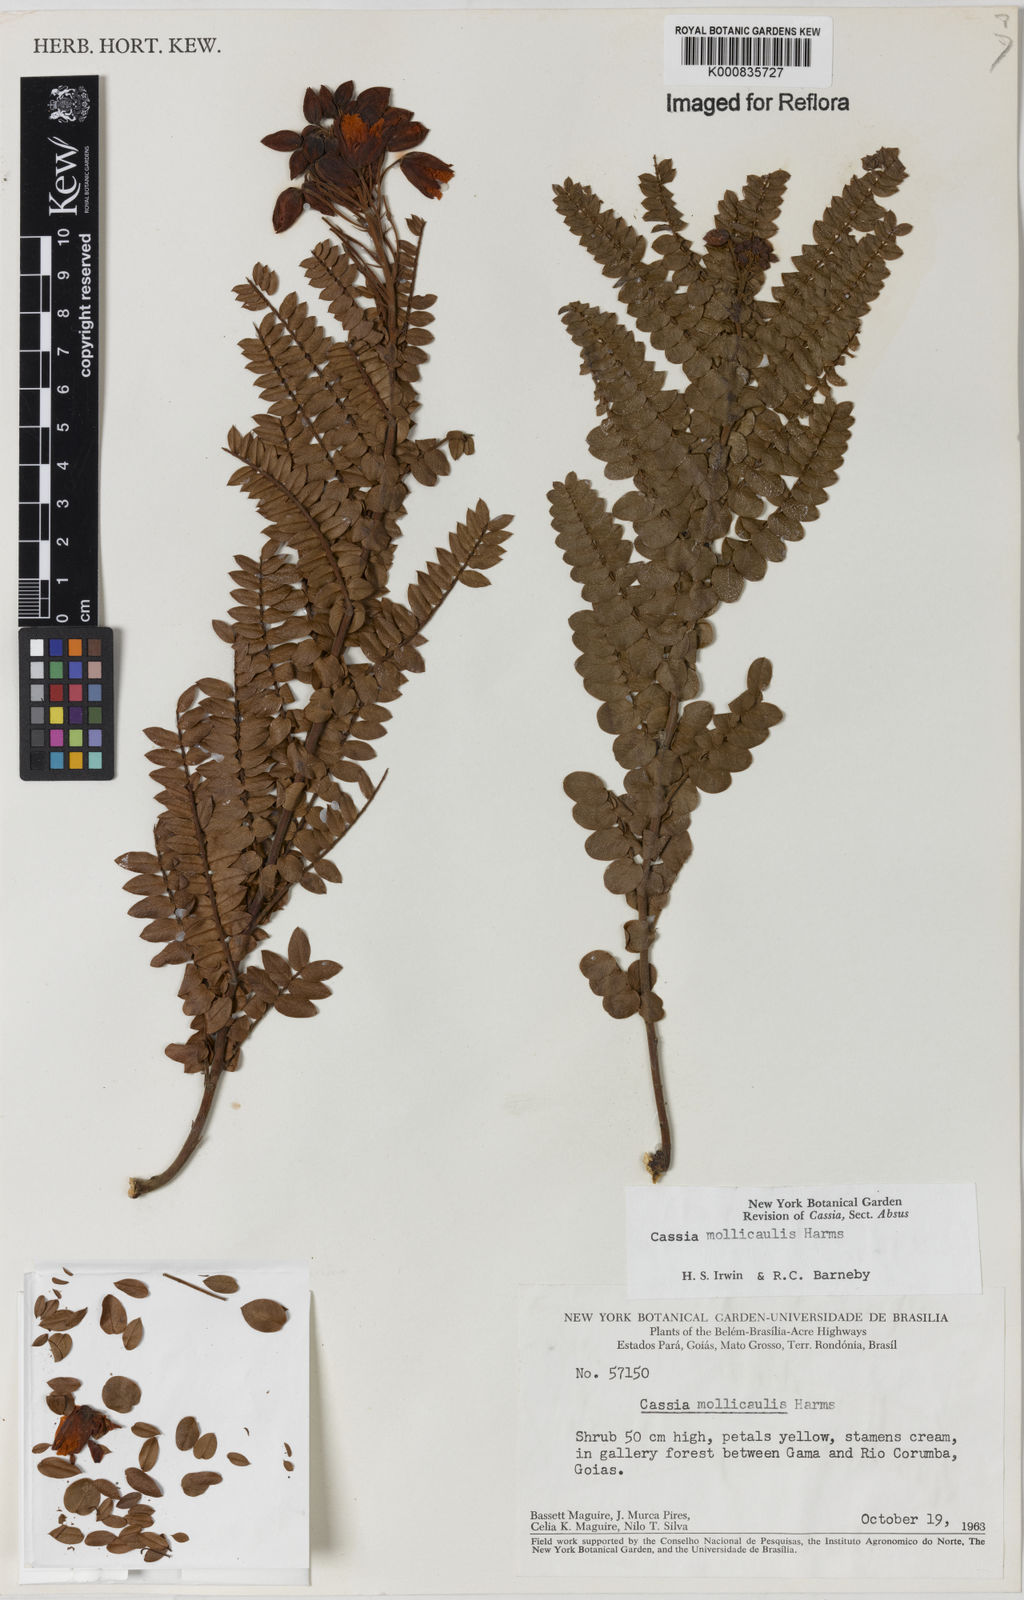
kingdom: Plantae
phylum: Tracheophyta
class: Magnoliopsida
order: Fabales
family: Fabaceae
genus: Chamaecrista
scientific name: Chamaecrista mollicaulis
